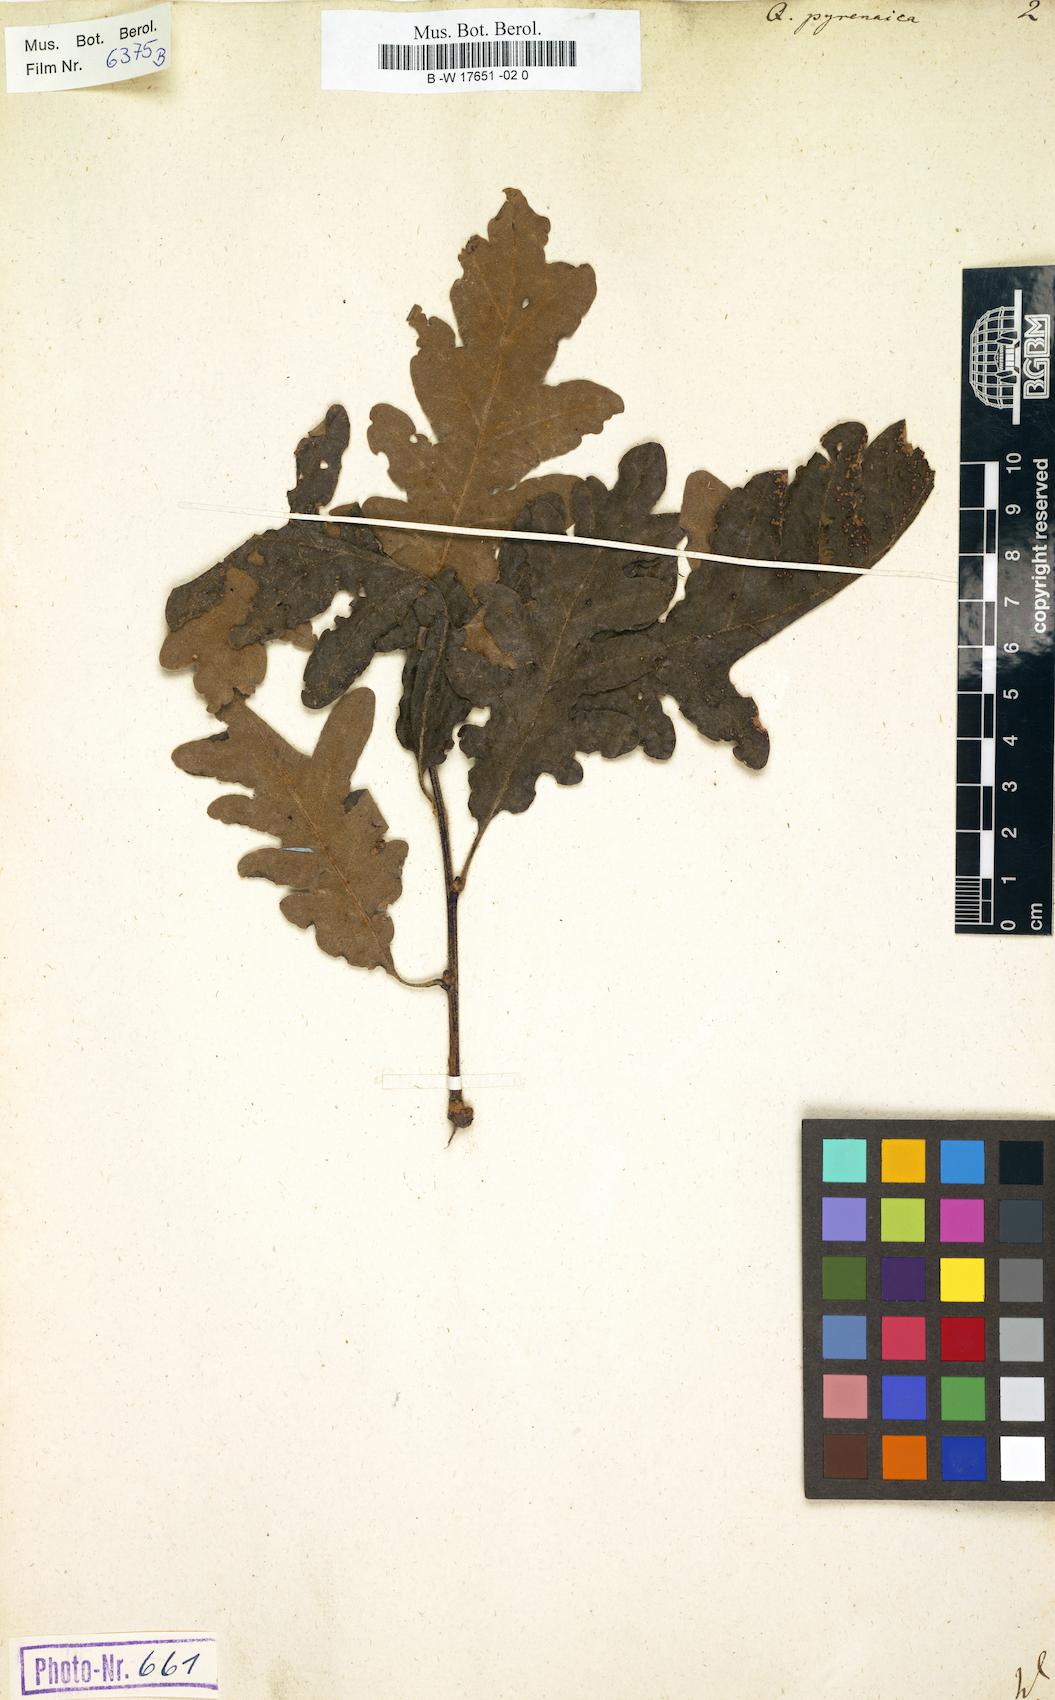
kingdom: Plantae
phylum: Tracheophyta
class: Magnoliopsida
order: Fagales
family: Fagaceae
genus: Quercus
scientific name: Quercus pyrenaica
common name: Pyrenean oak
